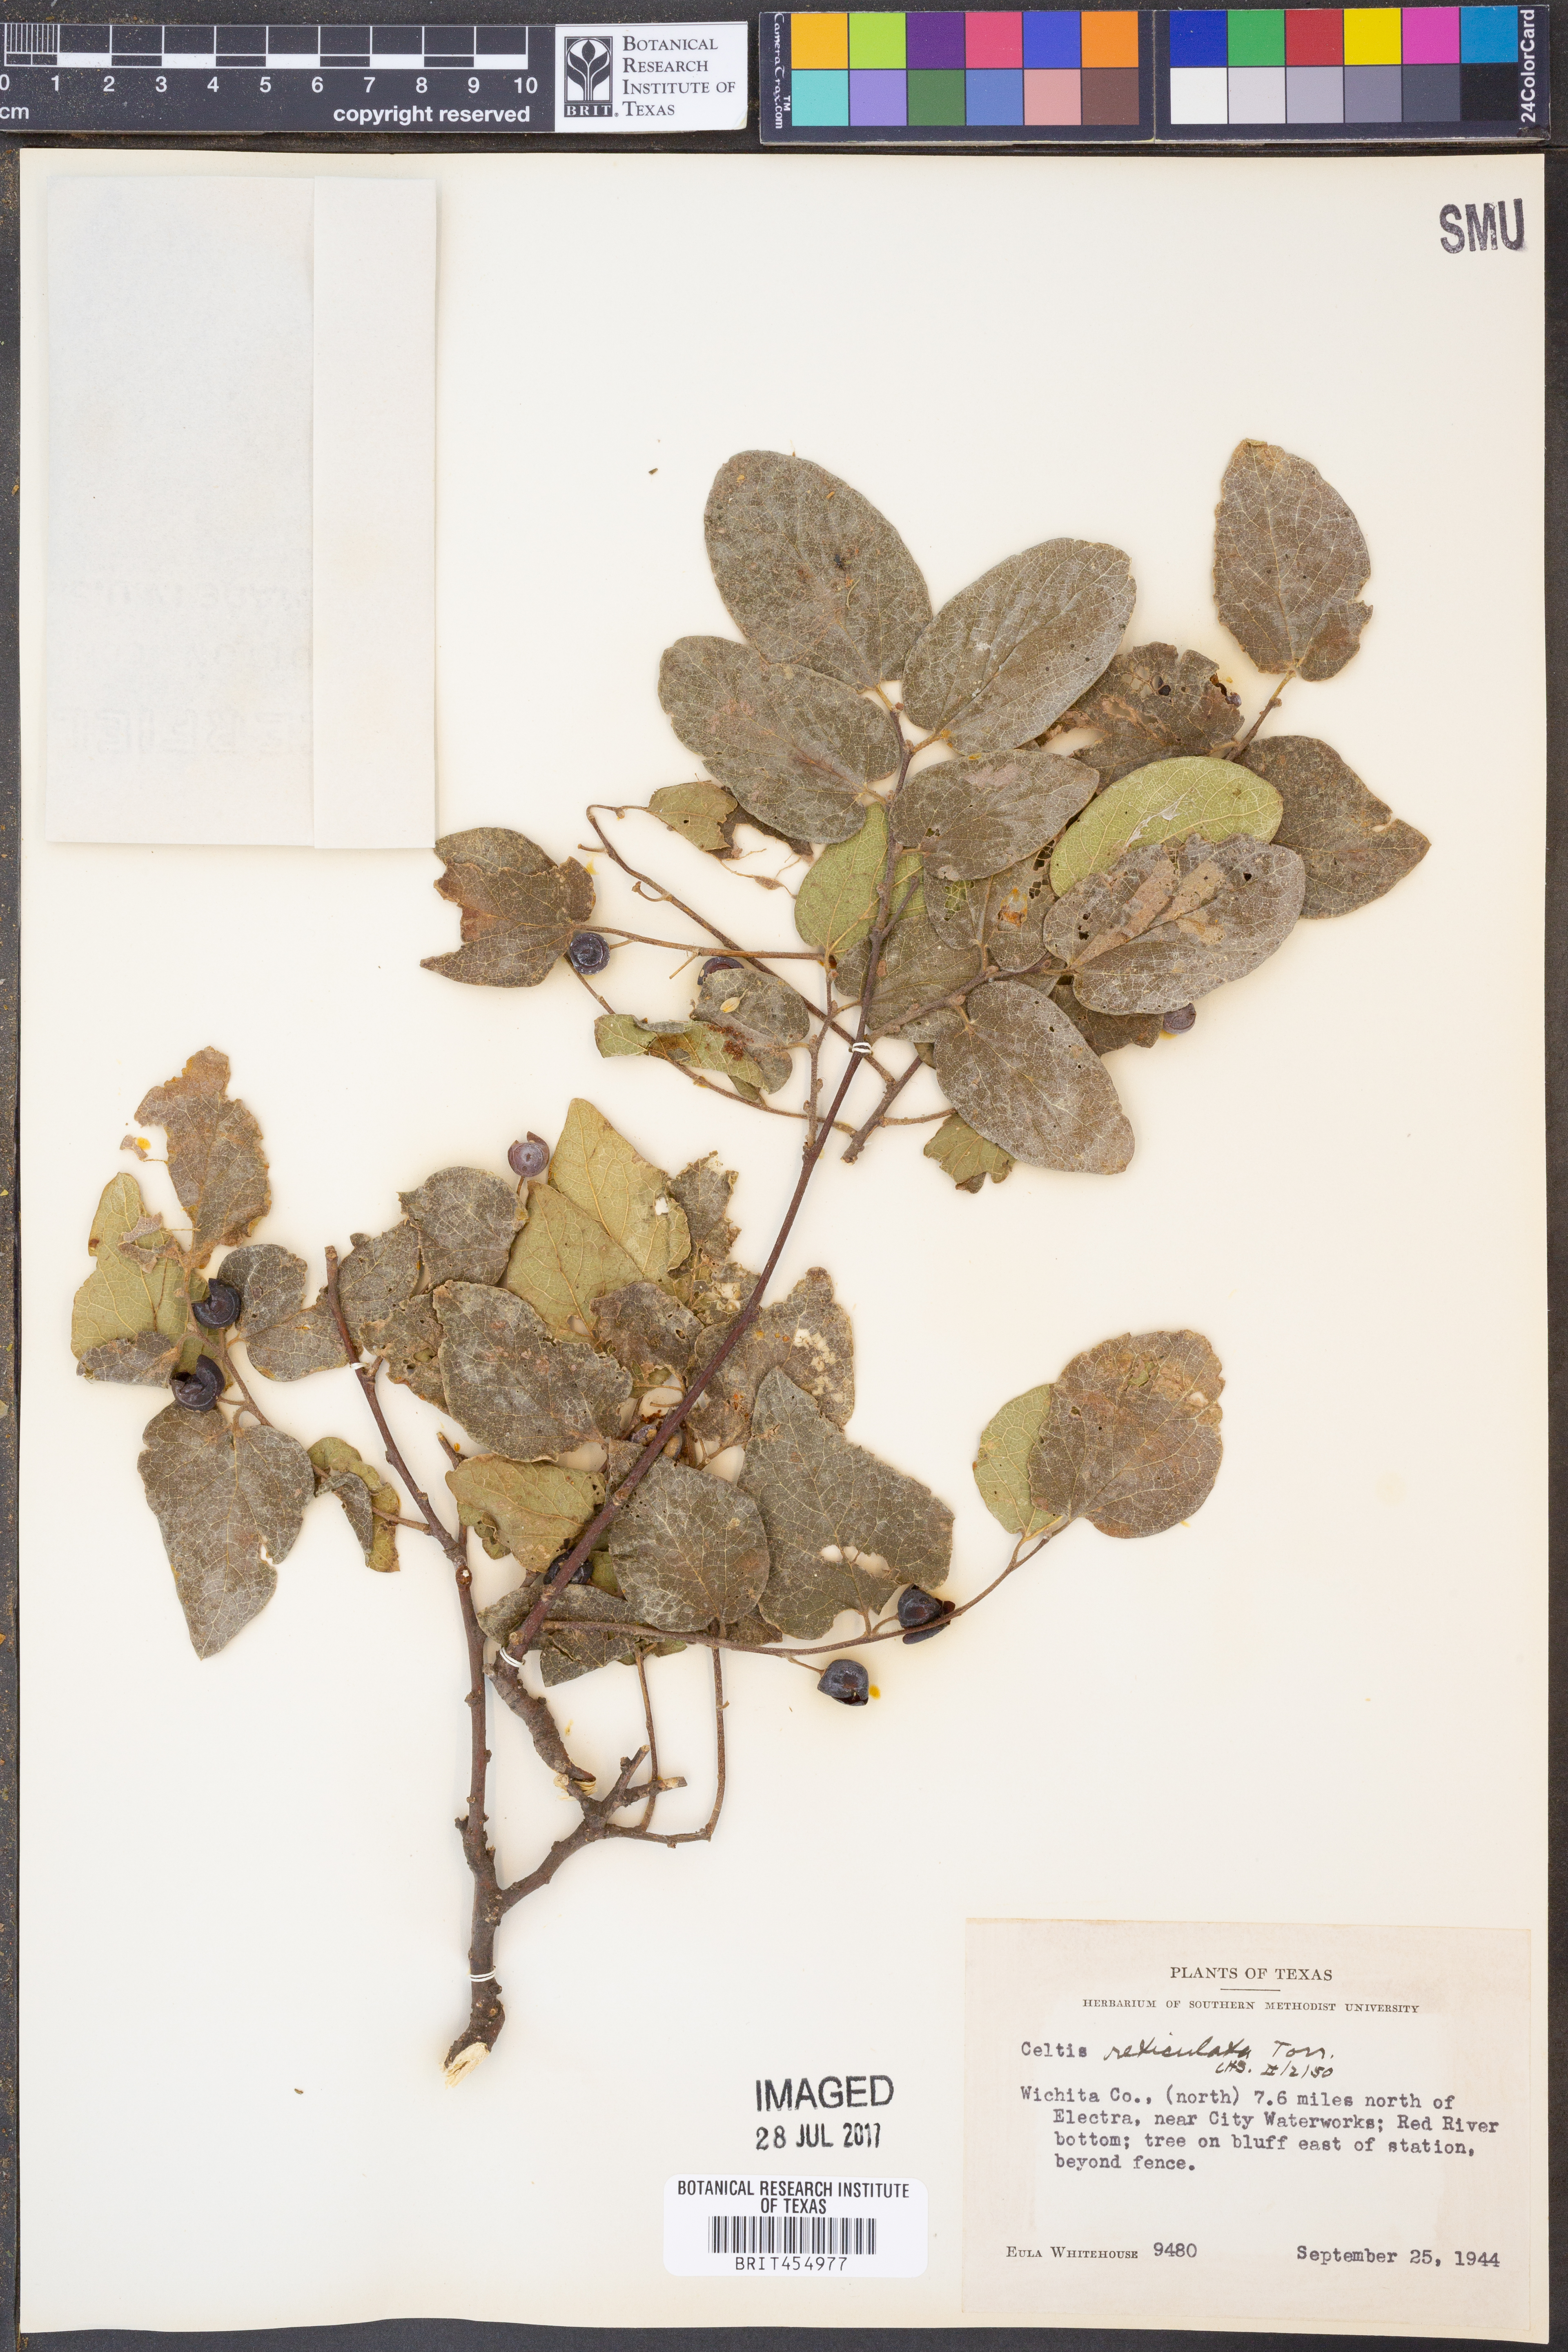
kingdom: Plantae
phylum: Tracheophyta
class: Magnoliopsida
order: Rosales
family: Cannabaceae
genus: Celtis
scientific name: Celtis reticulata
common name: Netleaf hackberry
